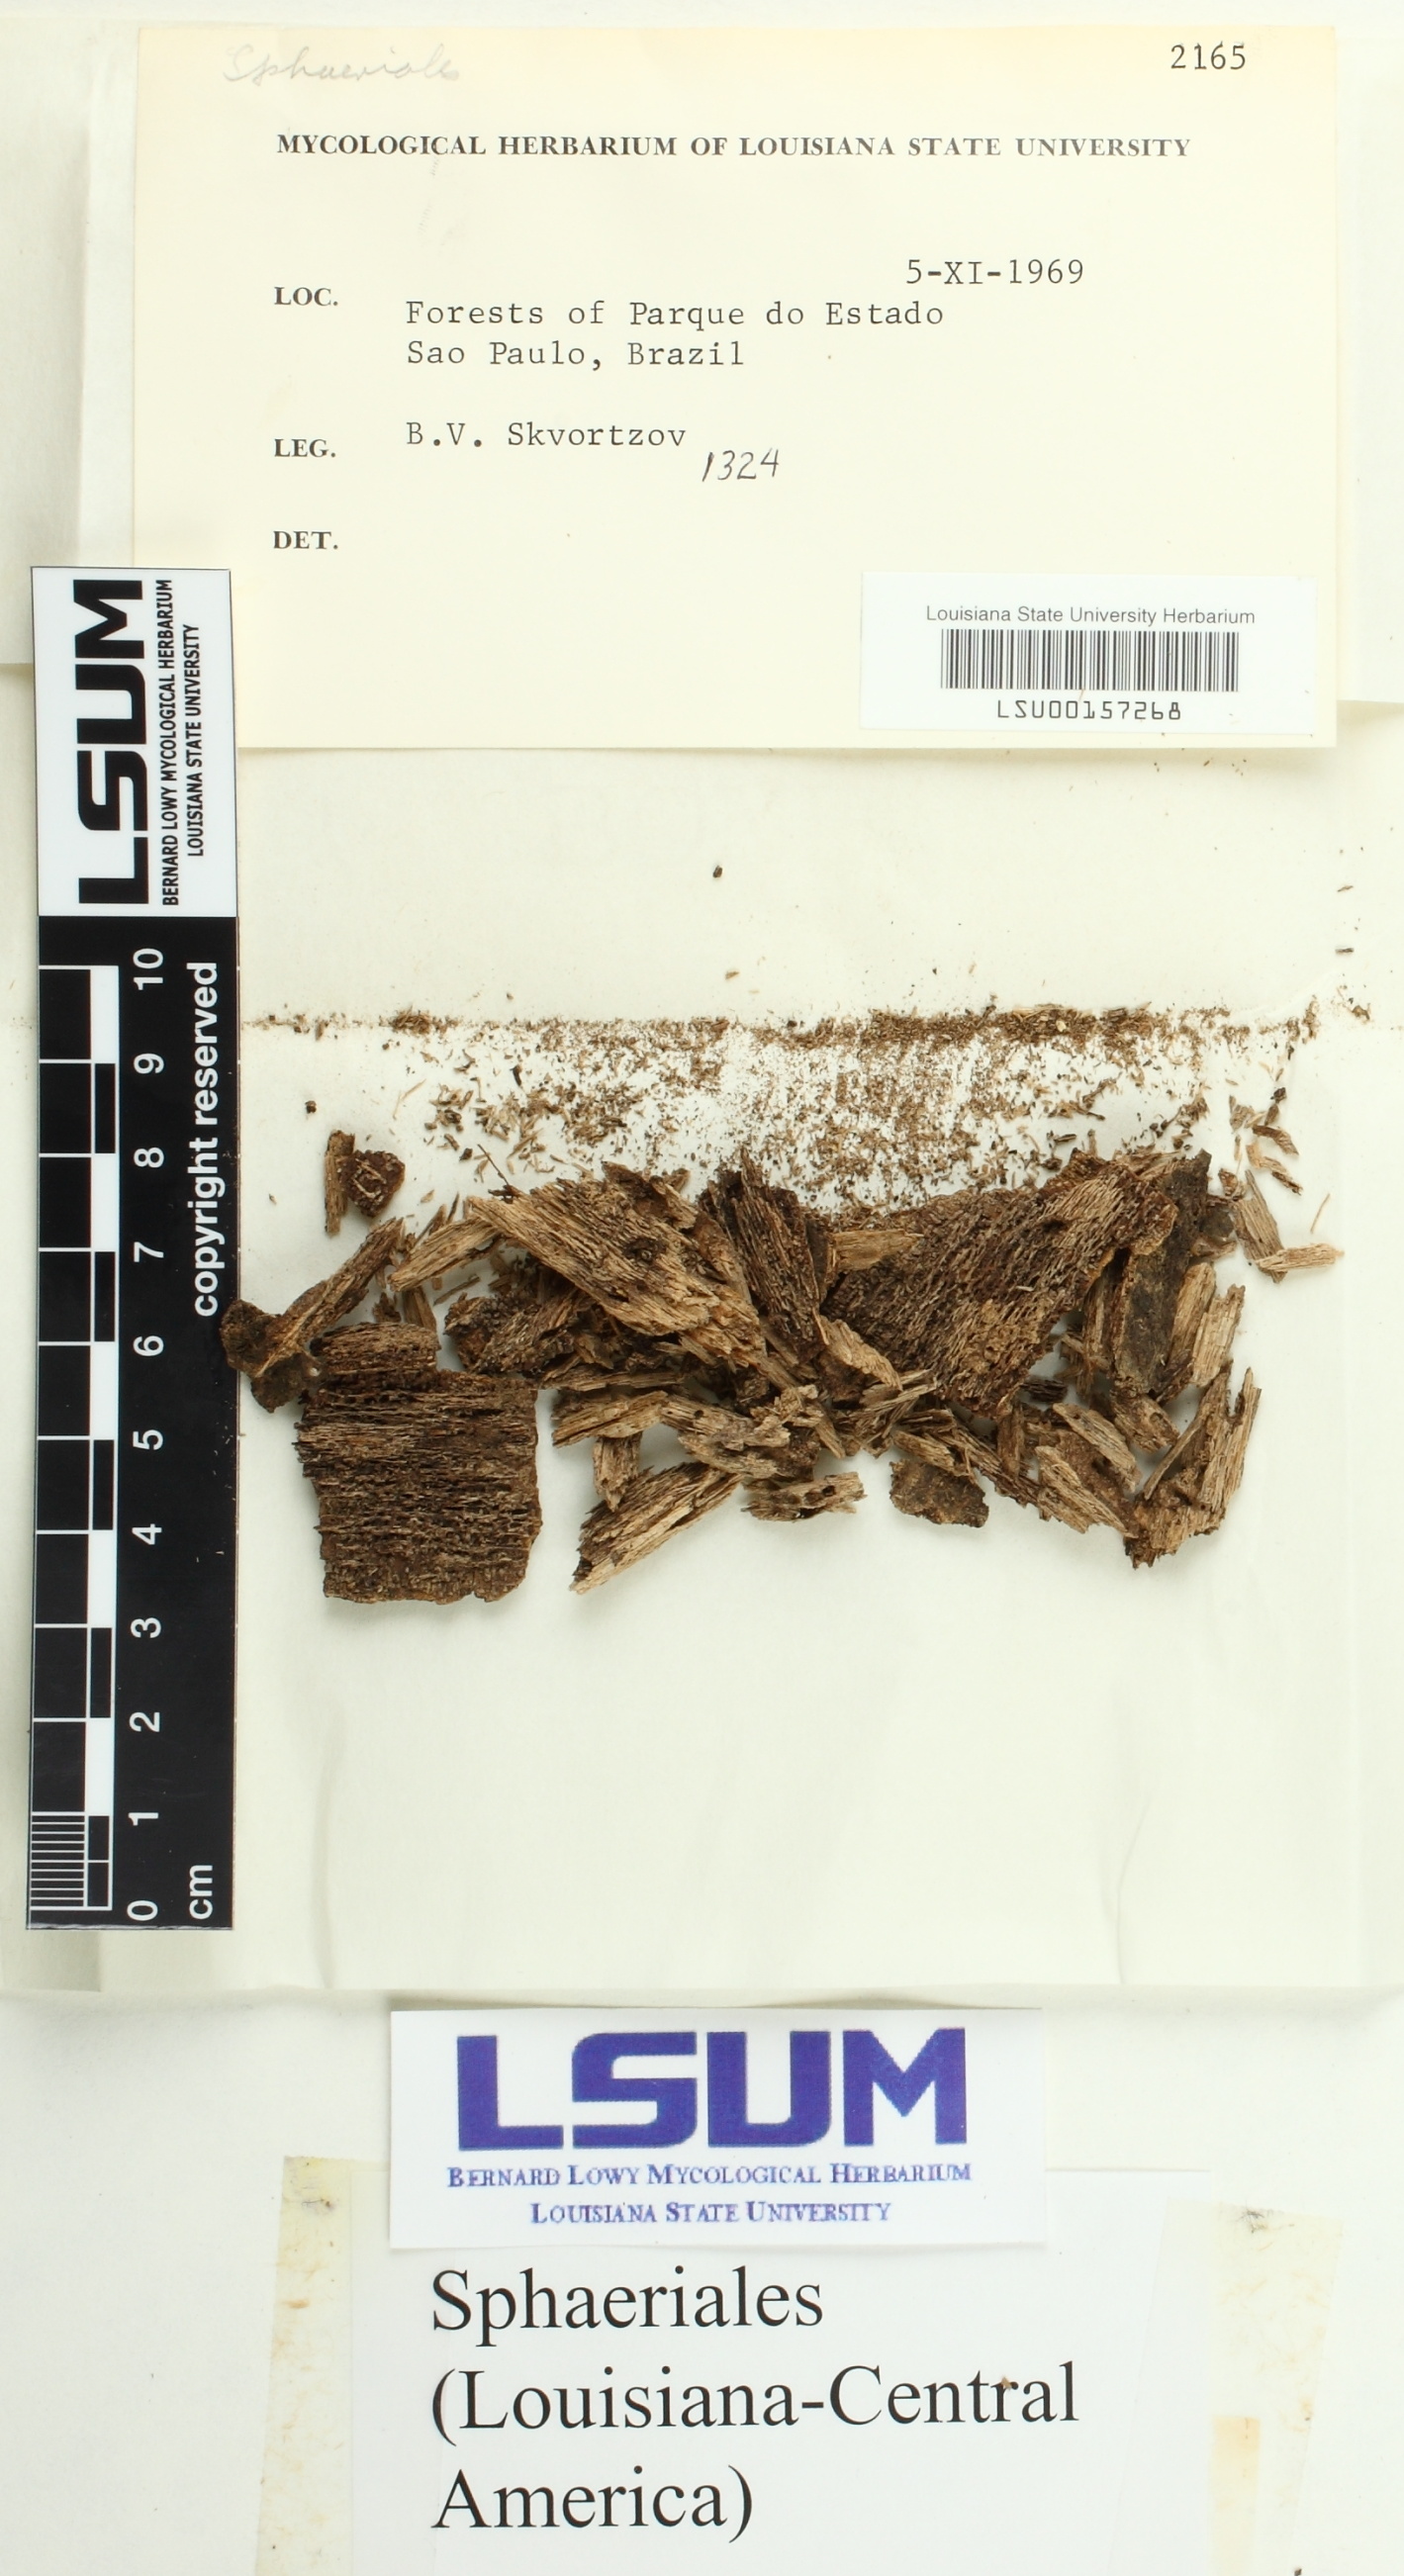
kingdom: Fungi
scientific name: Fungi
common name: Fungi
